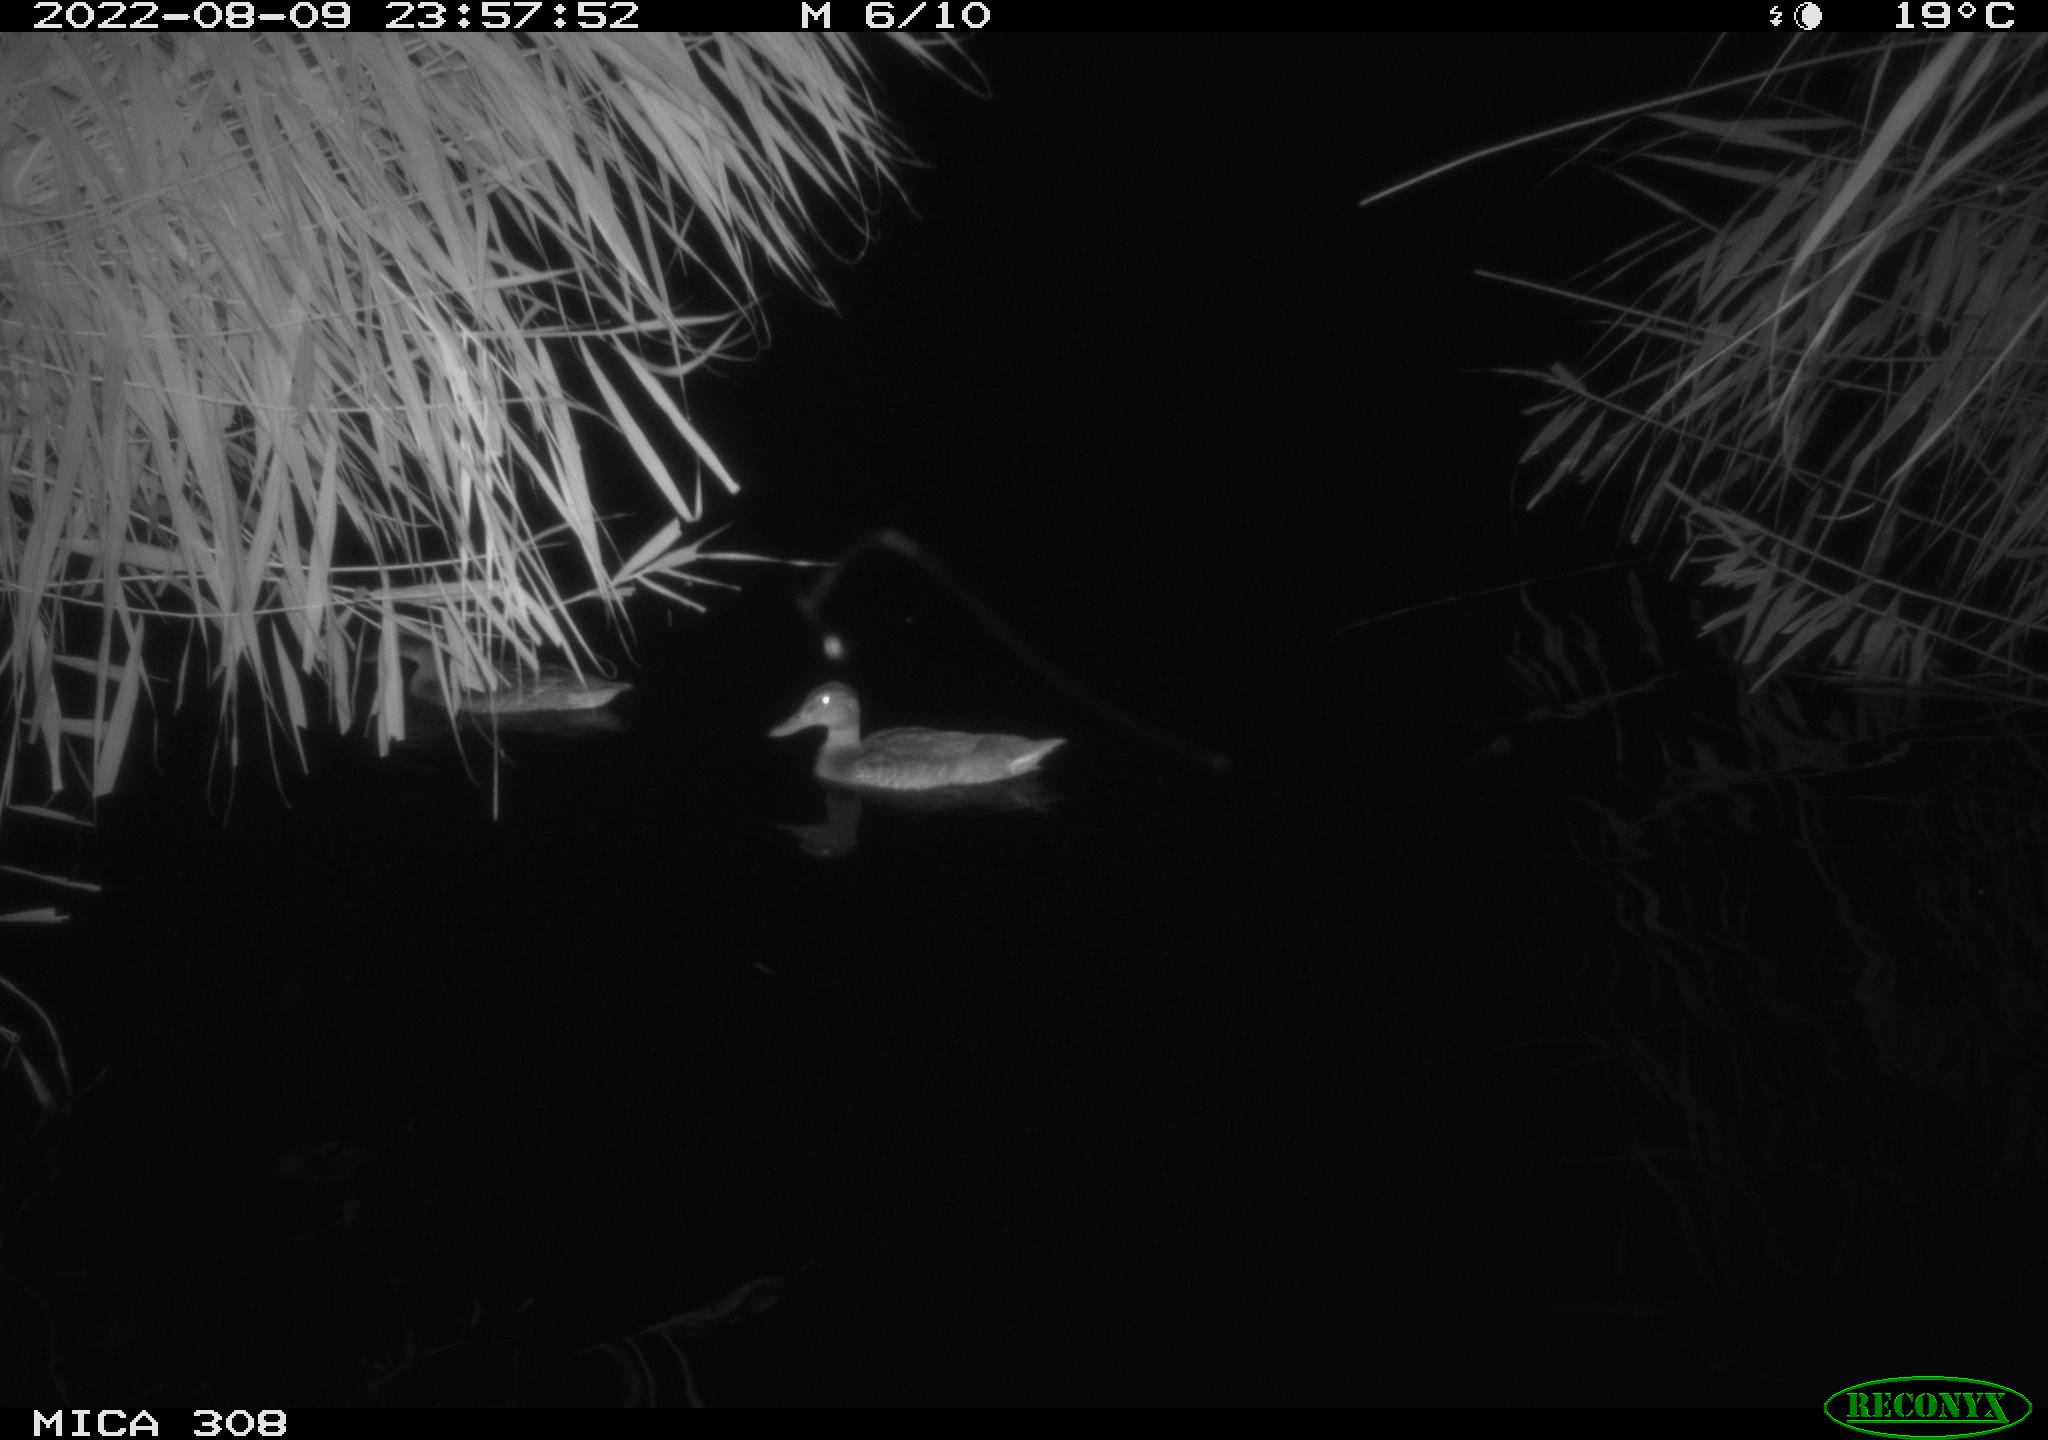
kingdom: Animalia
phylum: Chordata
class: Aves
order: Anseriformes
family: Anatidae
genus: Anas
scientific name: Anas platyrhynchos
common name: Mallard
